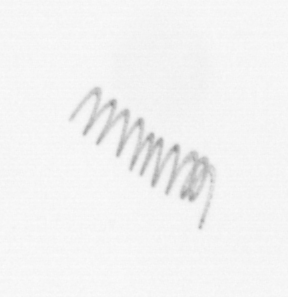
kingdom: Chromista
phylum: Ochrophyta
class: Bacillariophyceae
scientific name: Bacillariophyceae
